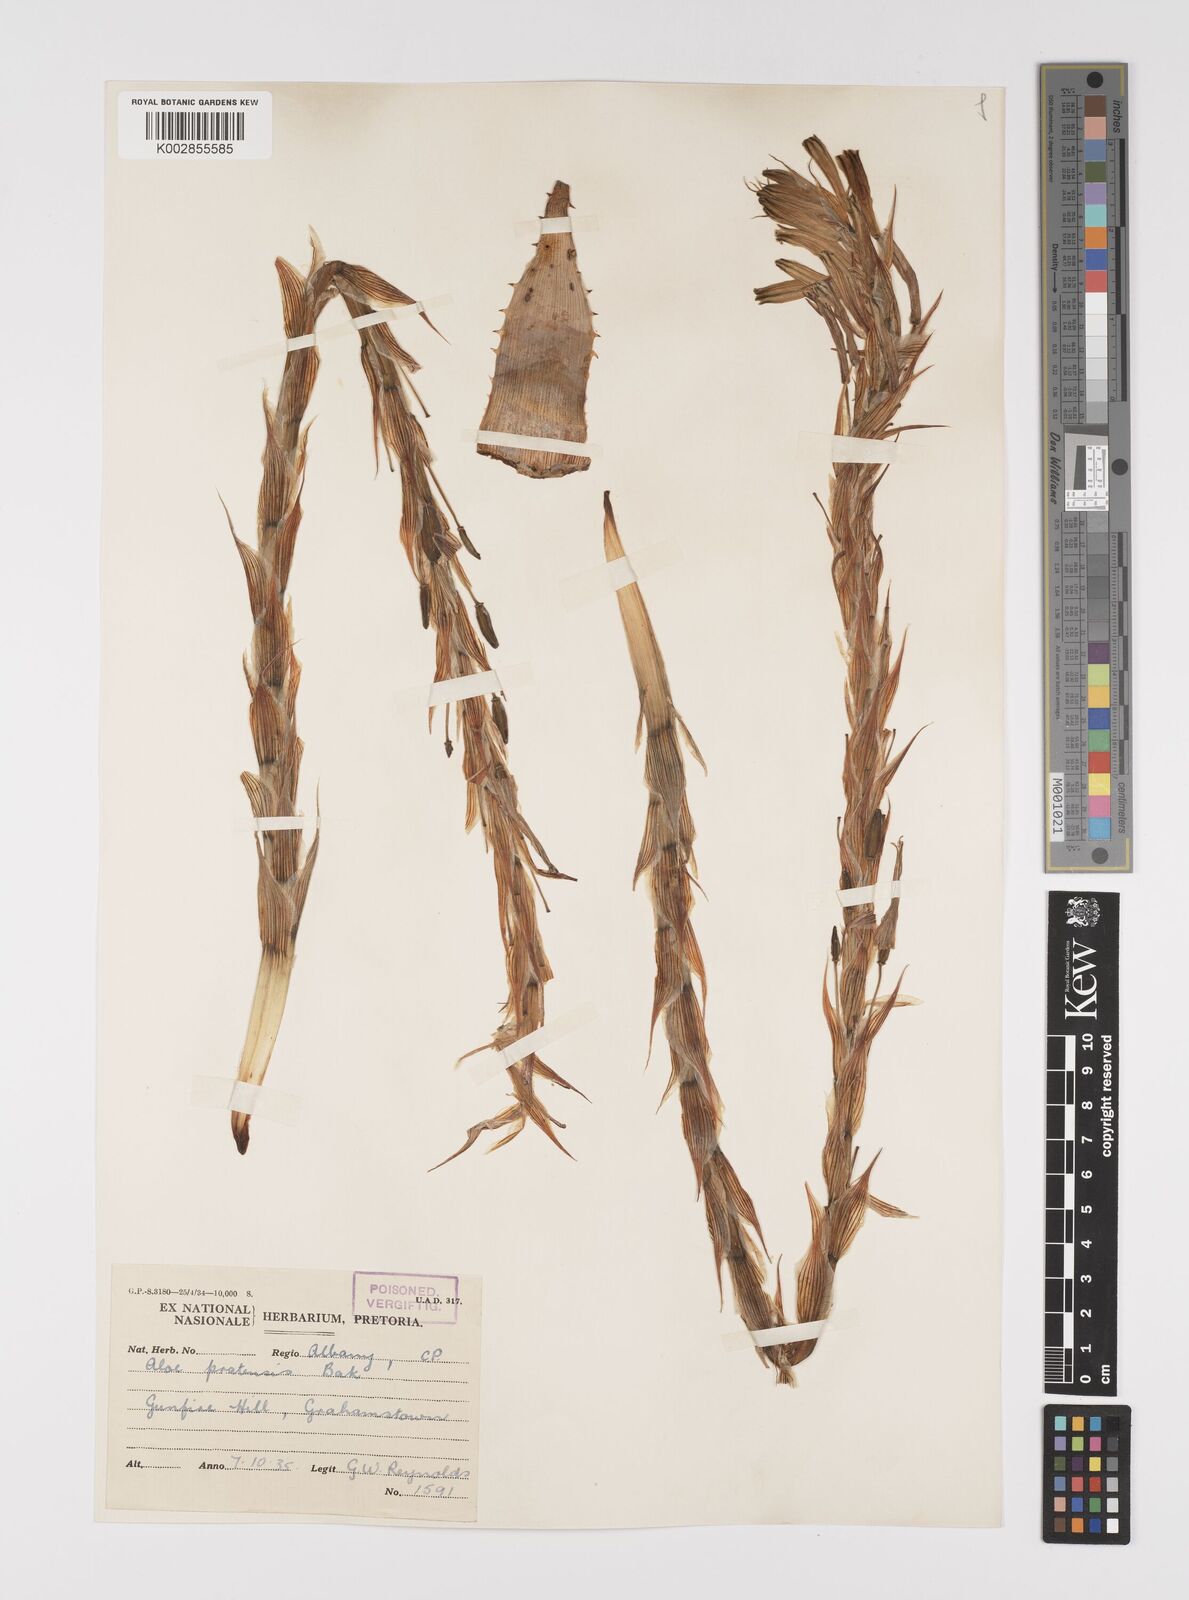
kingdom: Plantae
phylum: Tracheophyta
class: Liliopsida
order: Asparagales
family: Asphodelaceae
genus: Aloe
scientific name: Aloe pratensis
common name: Meadow aloe
